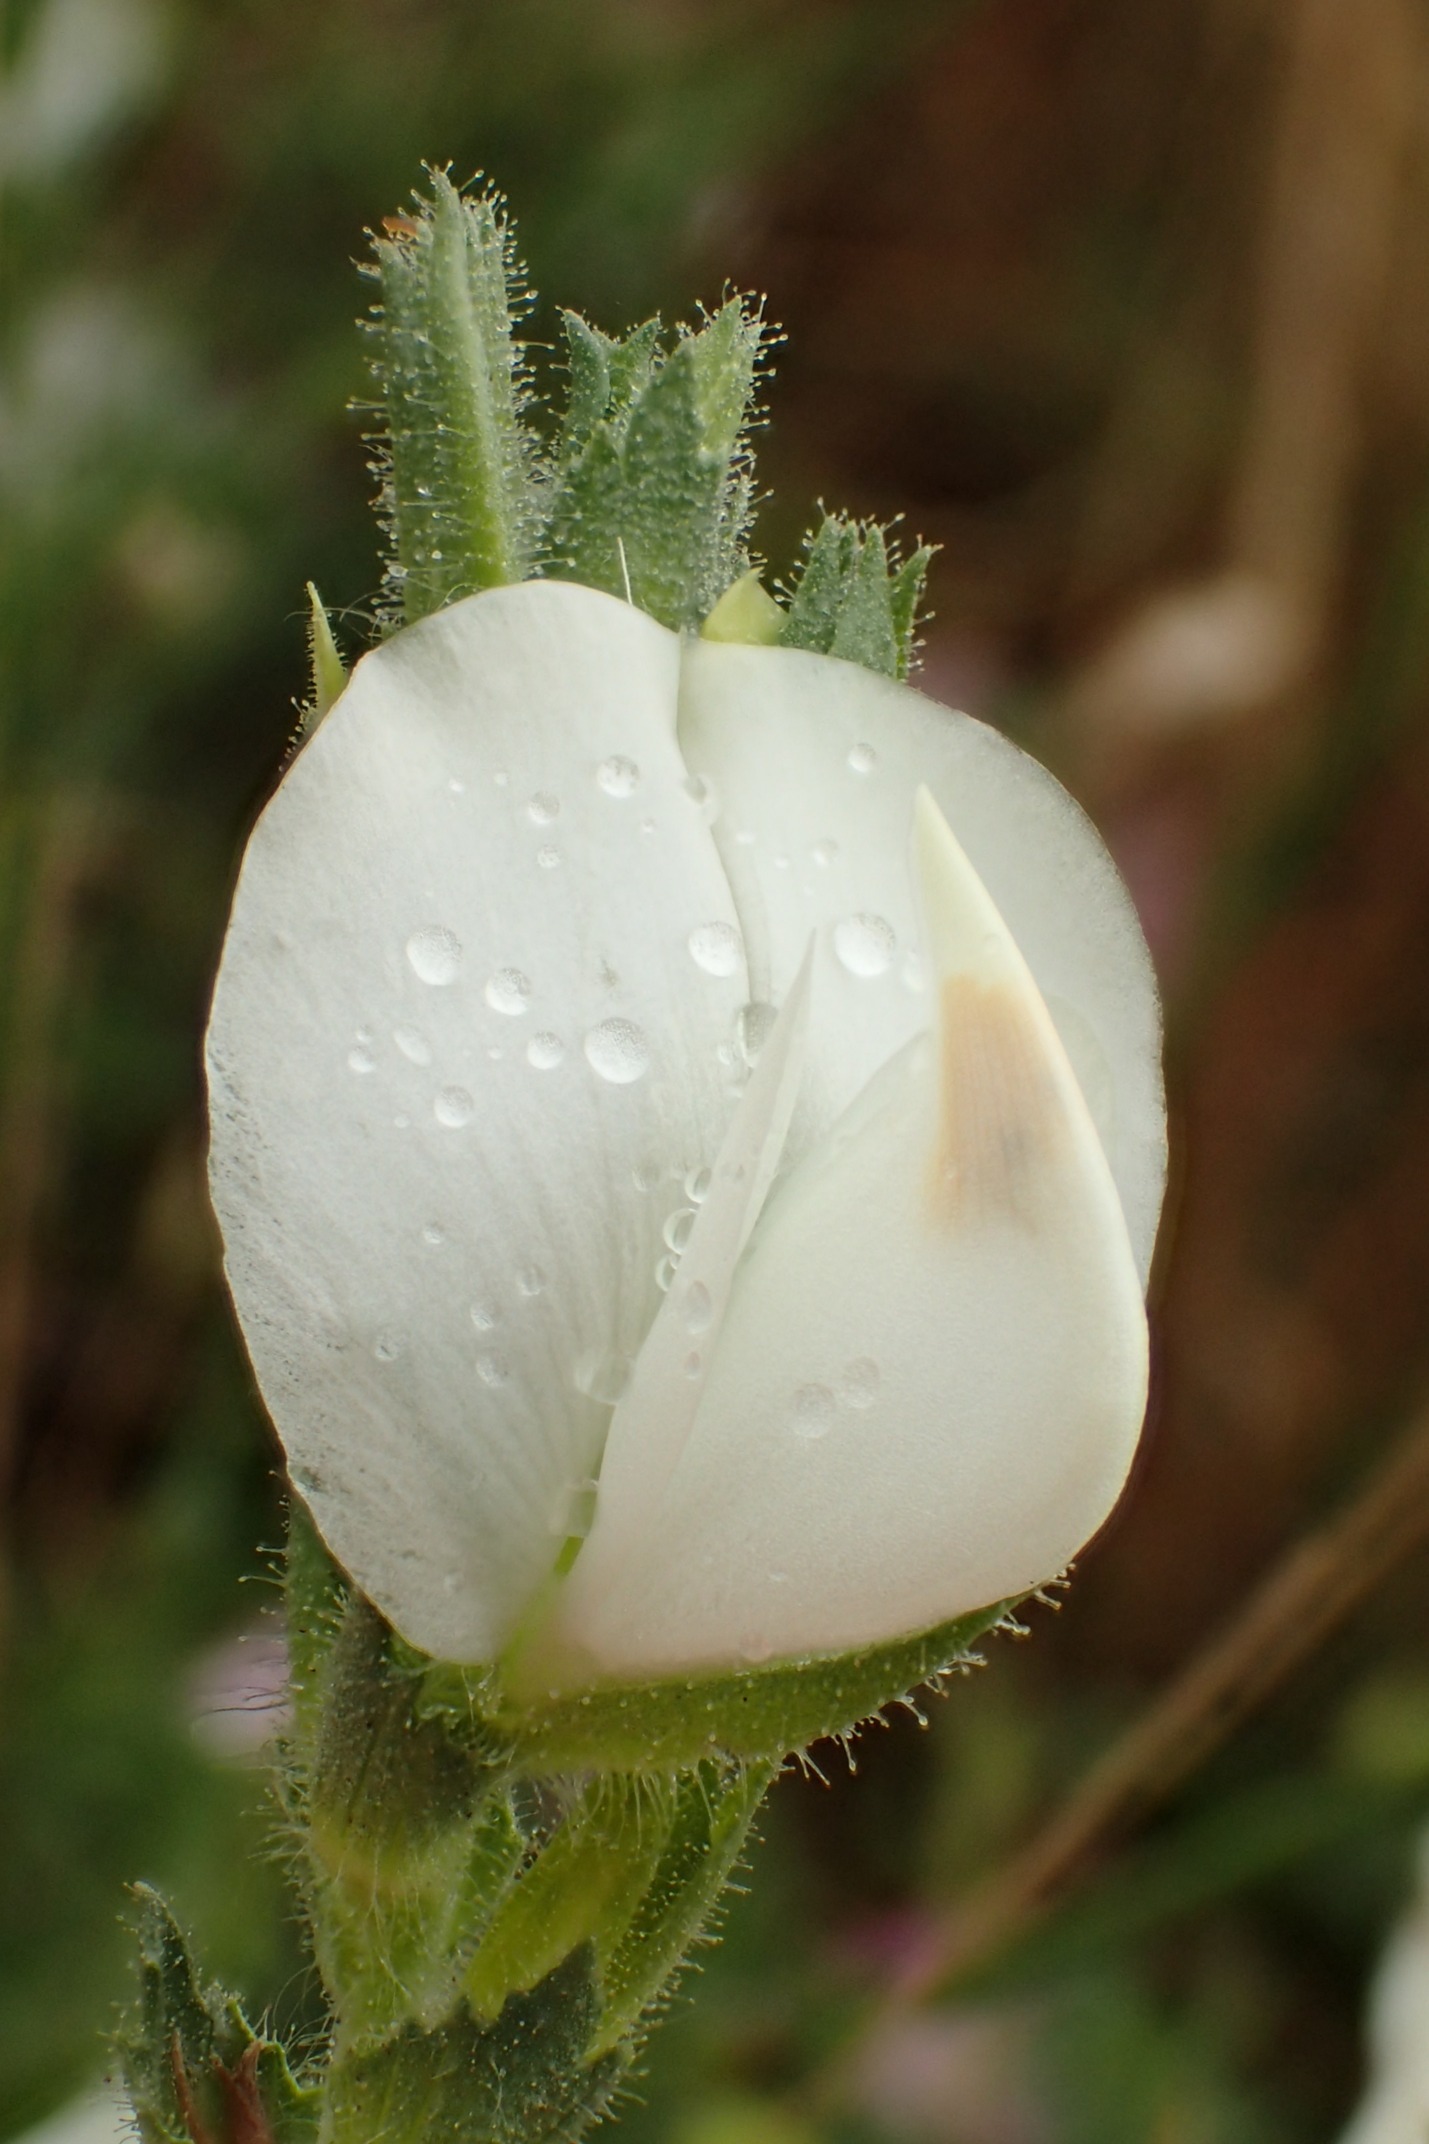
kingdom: Plantae
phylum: Tracheophyta
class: Magnoliopsida
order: Fabales
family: Fabaceae
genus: Ononis
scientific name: Ononis spinosa
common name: Mark-krageklo
